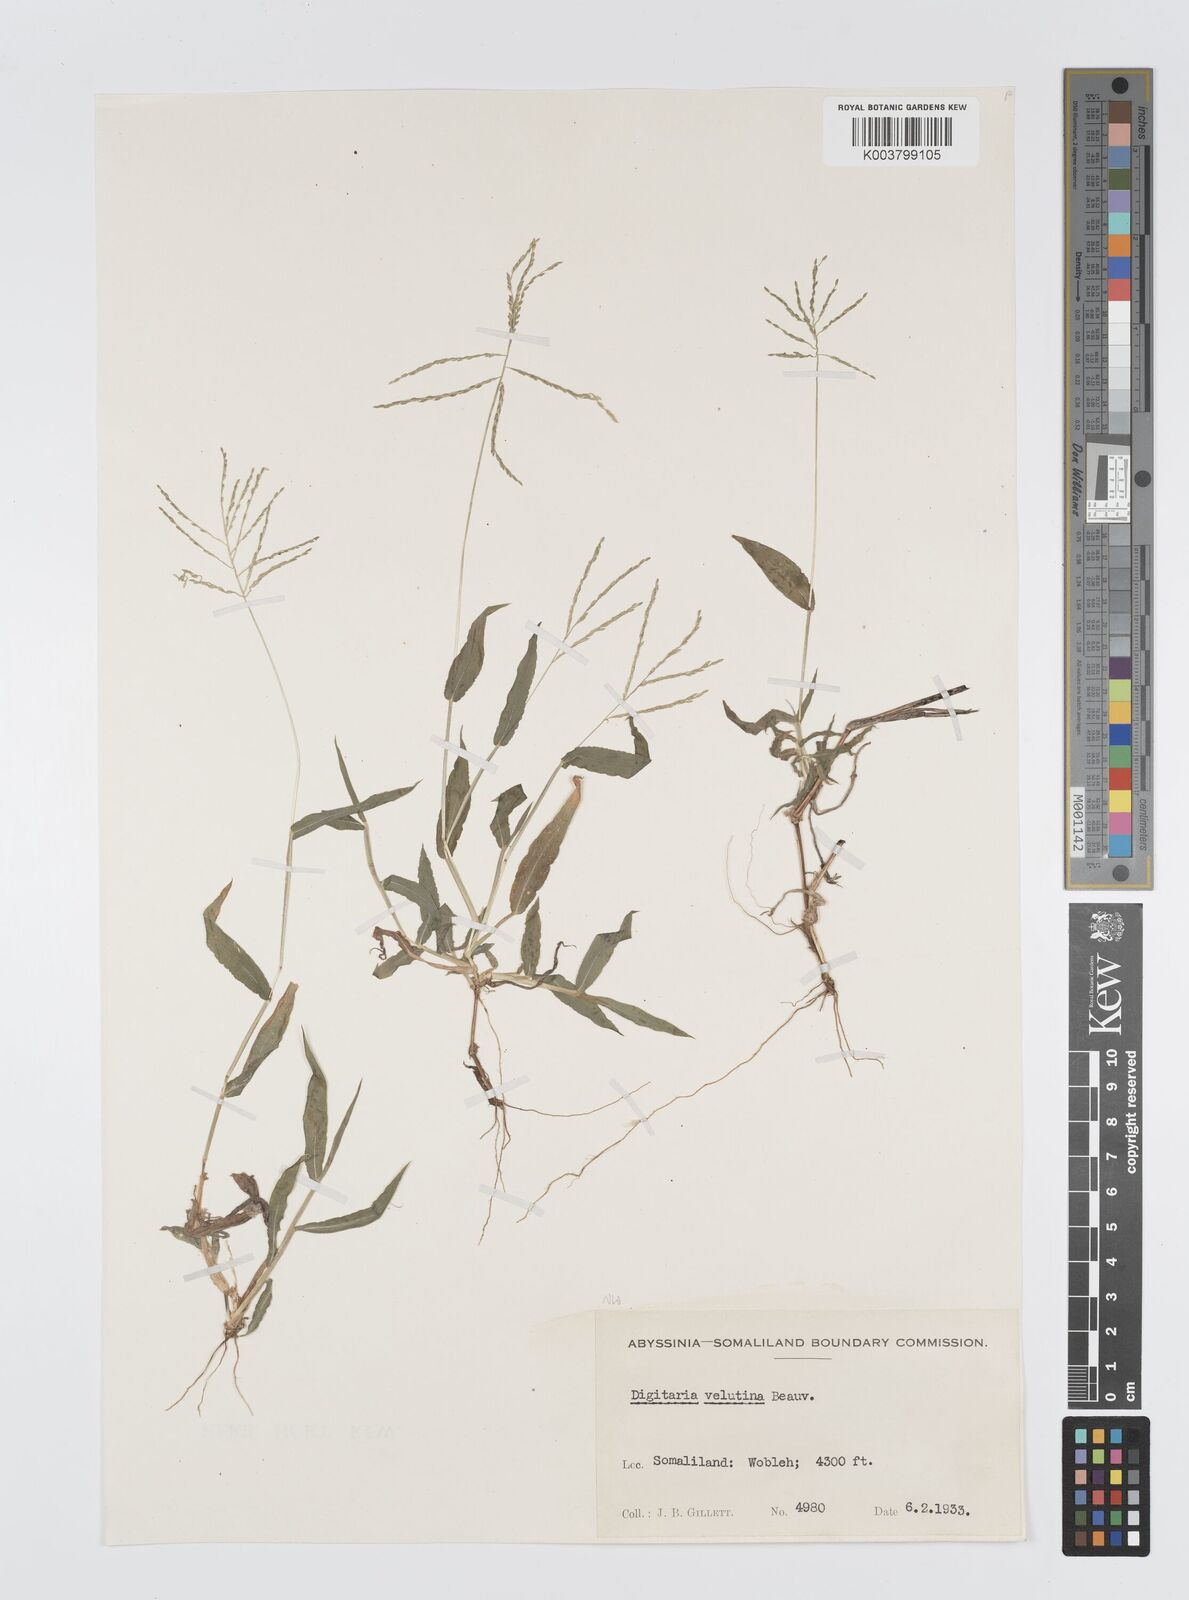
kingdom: Plantae
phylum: Tracheophyta
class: Liliopsida
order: Poales
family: Poaceae
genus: Digitaria
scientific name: Digitaria velutina
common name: Long-plume finger grass
